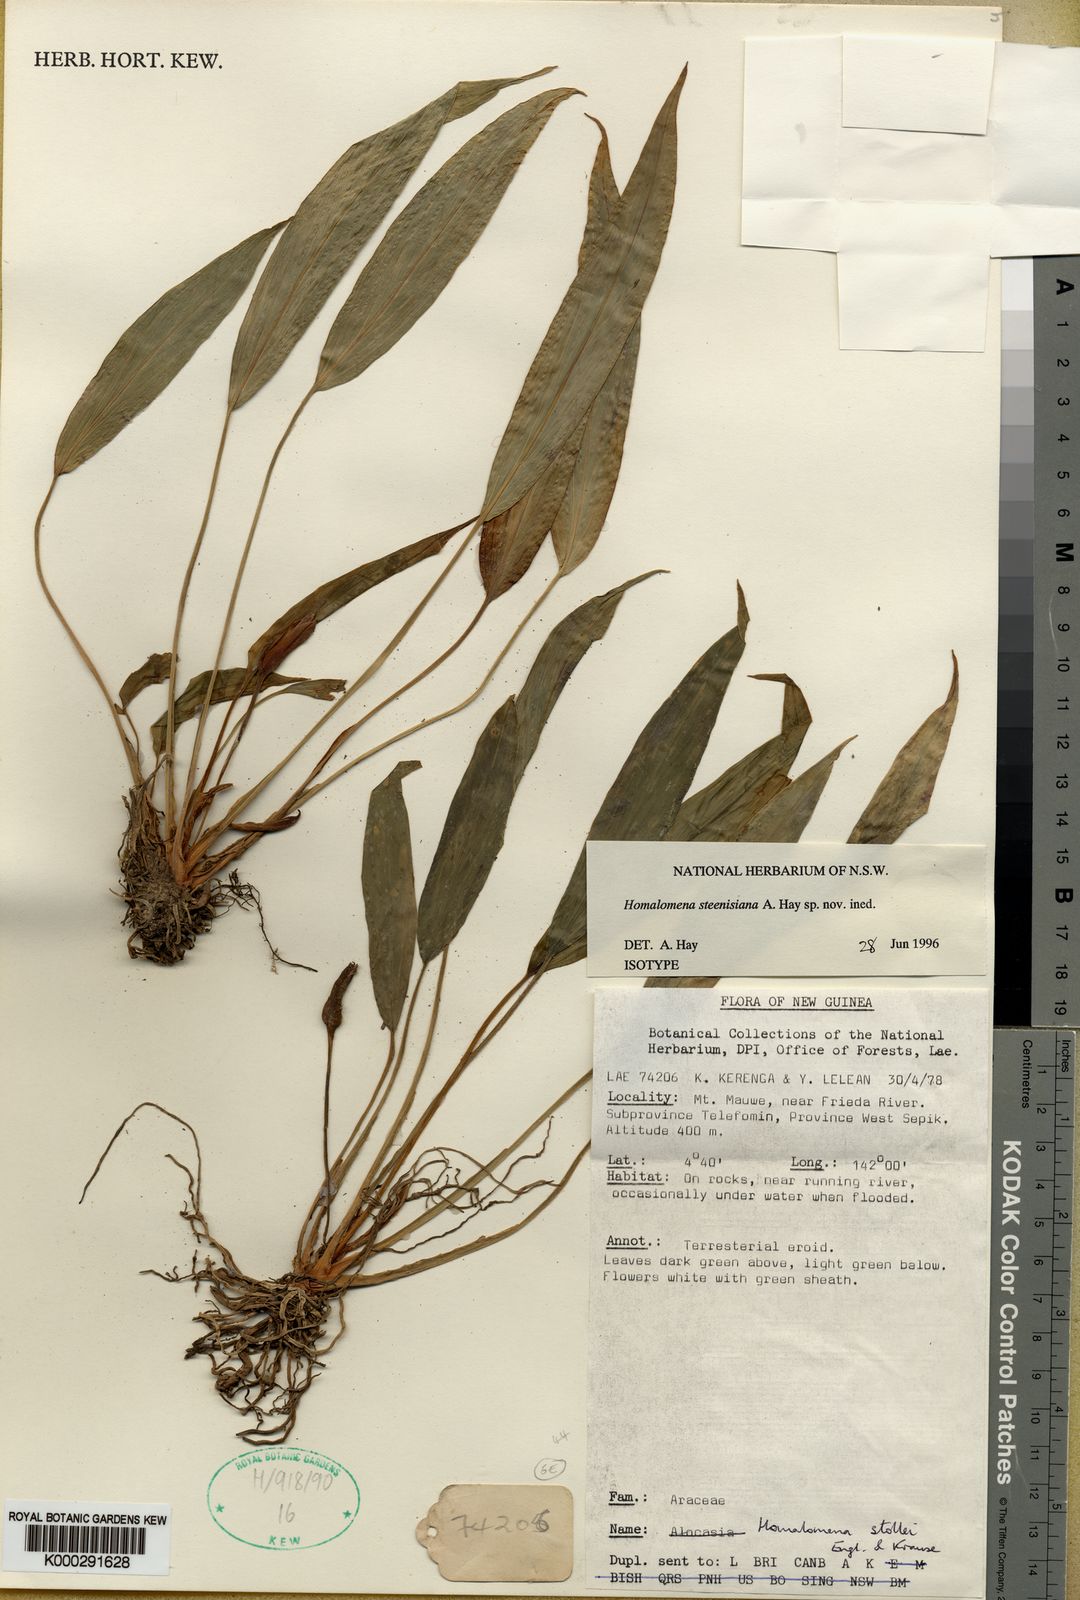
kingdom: Plantae
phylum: Tracheophyta
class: Liliopsida
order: Alismatales
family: Araceae
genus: Homalomena
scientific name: Homalomena steenisiana
